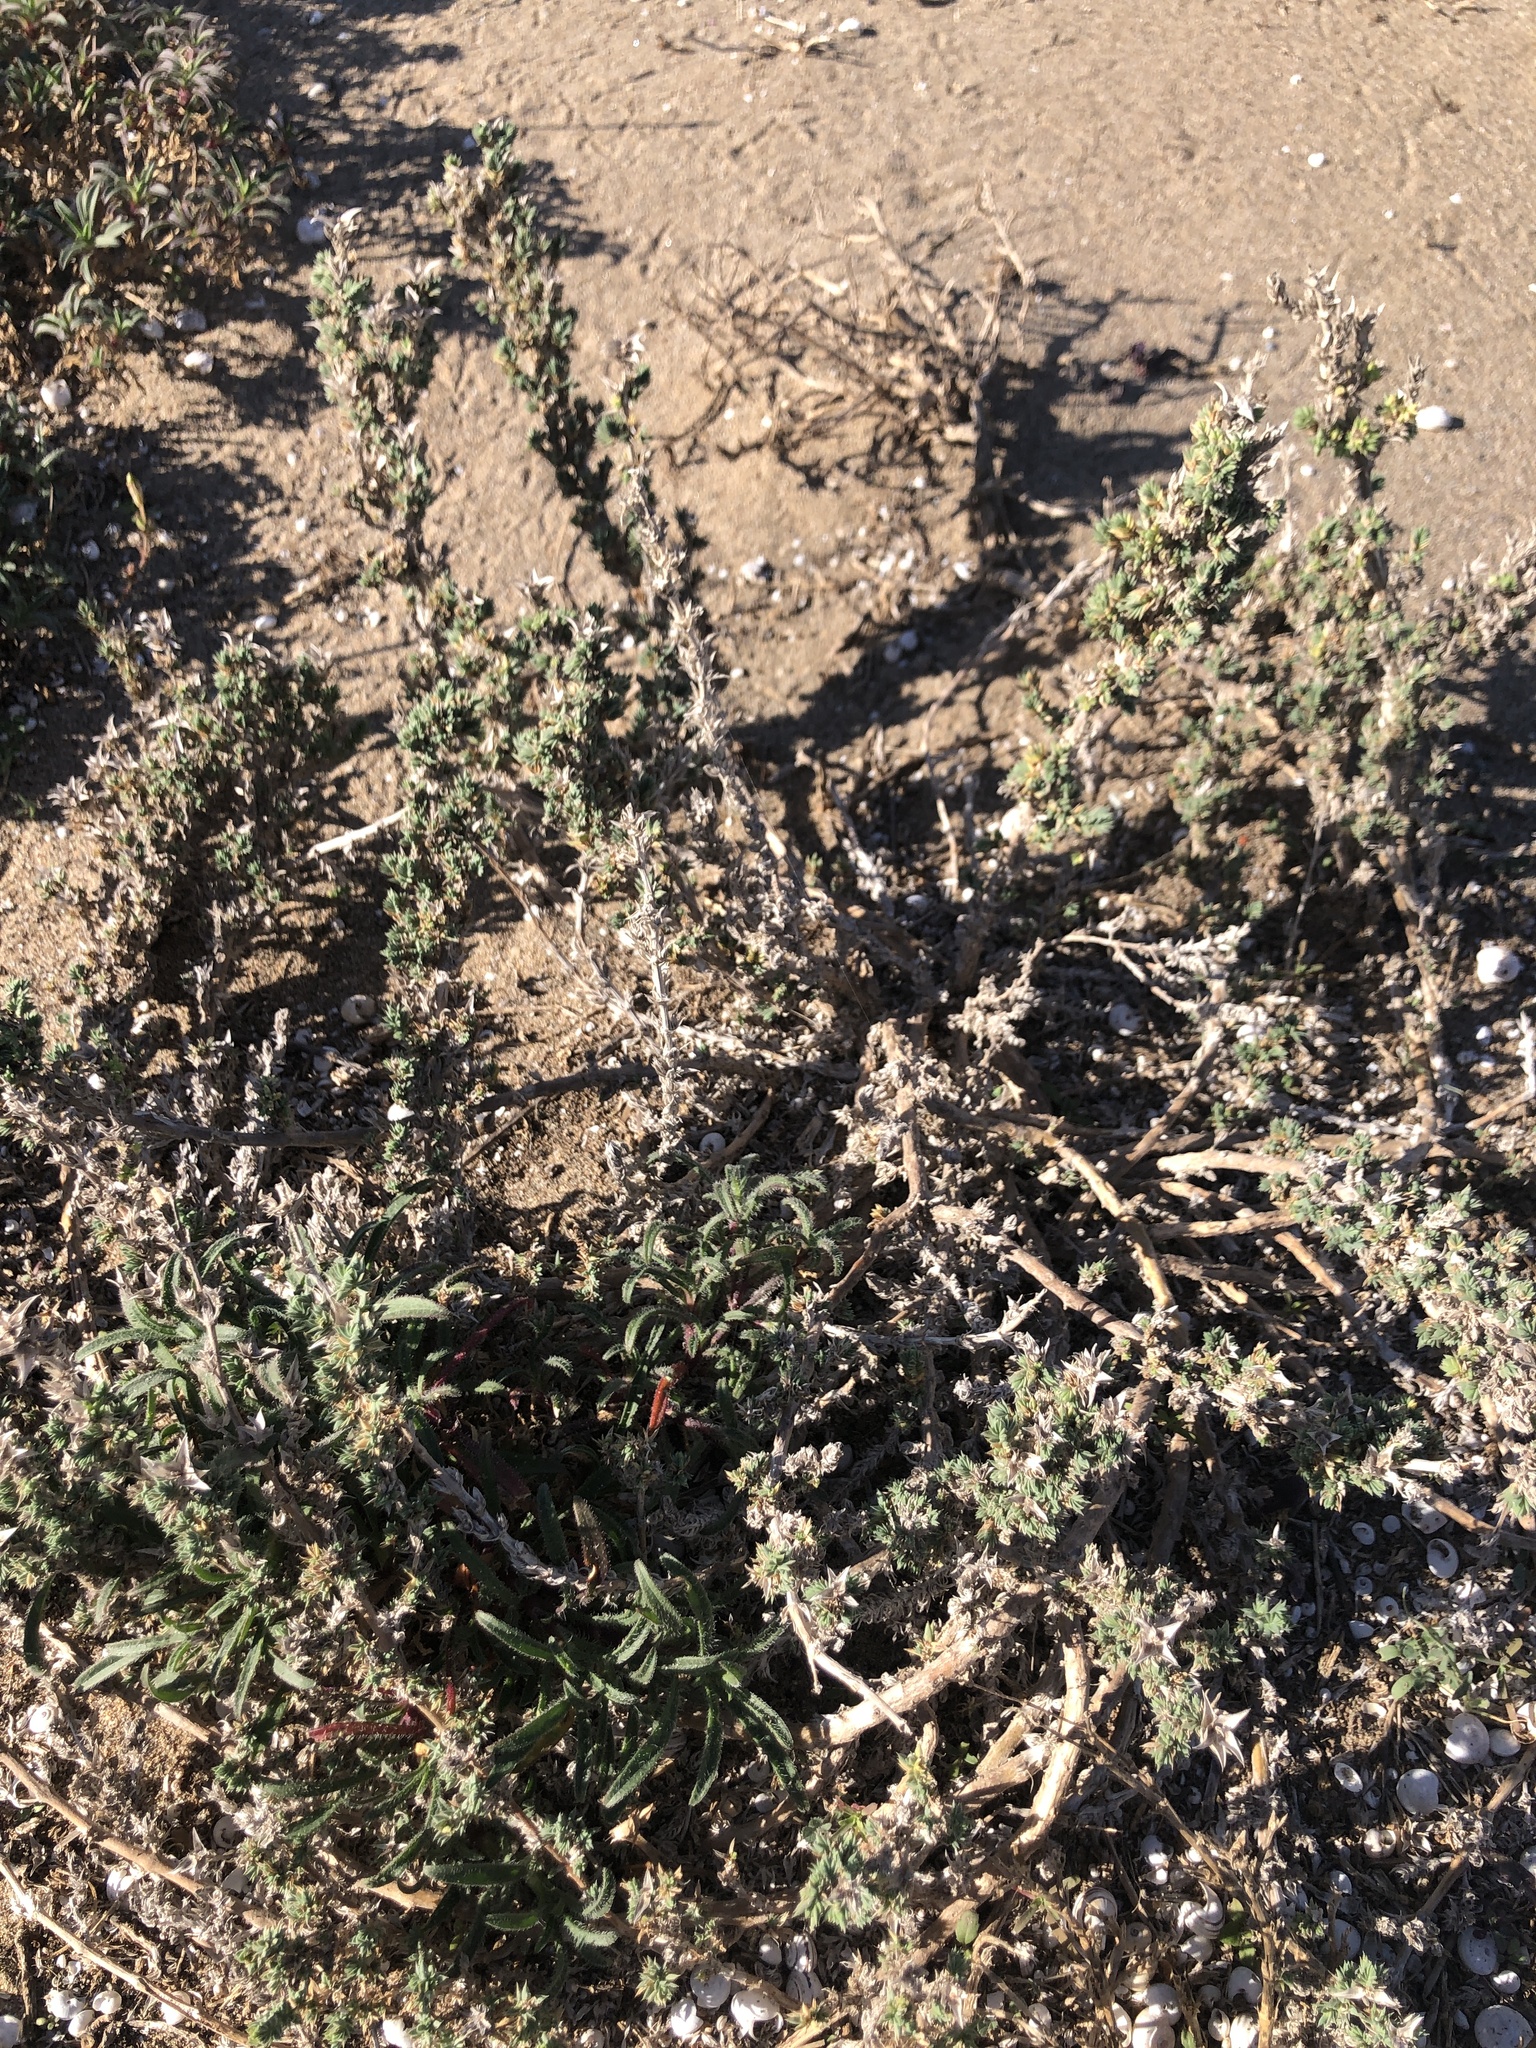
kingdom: Plantae
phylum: Tracheophyta
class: Magnoliopsida
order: Gentianales
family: Rubiaceae
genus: Crucianella
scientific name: Crucianella maritima
